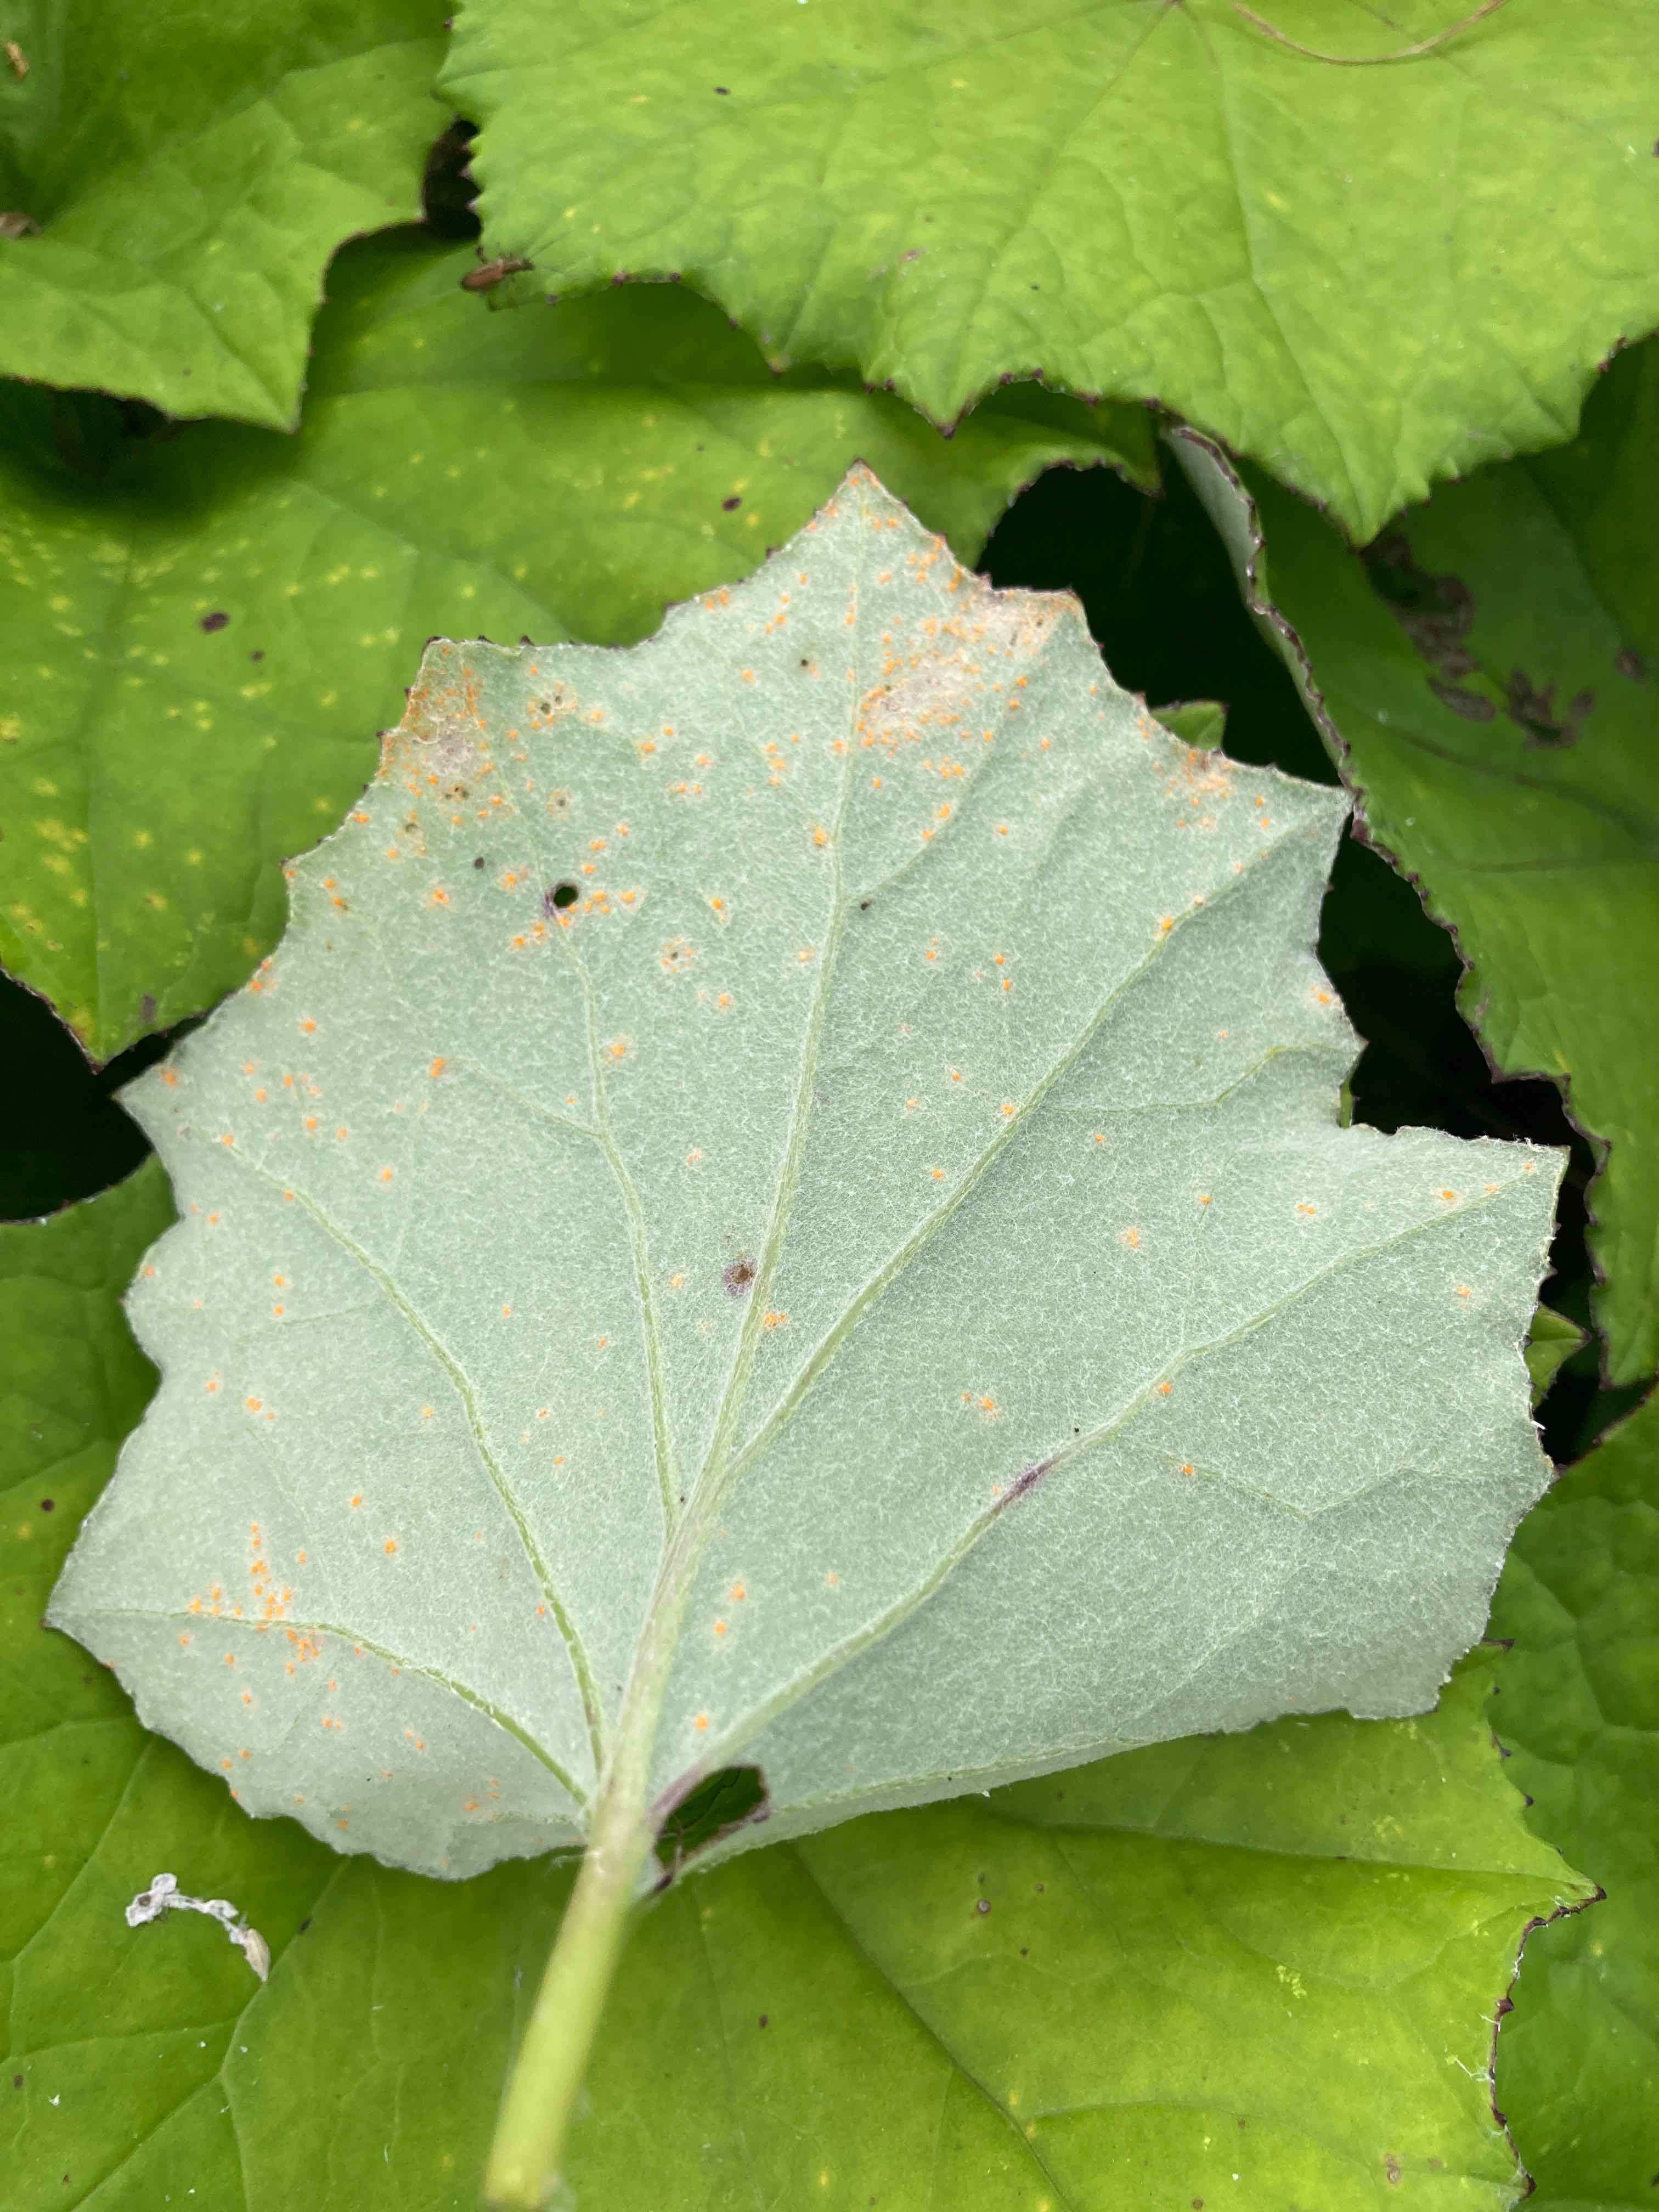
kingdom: Fungi
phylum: Basidiomycota
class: Pucciniomycetes
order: Pucciniales
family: Coleosporiaceae
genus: Coleosporium
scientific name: Coleosporium tussilaginis
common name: almindelig fyrrenålerust
